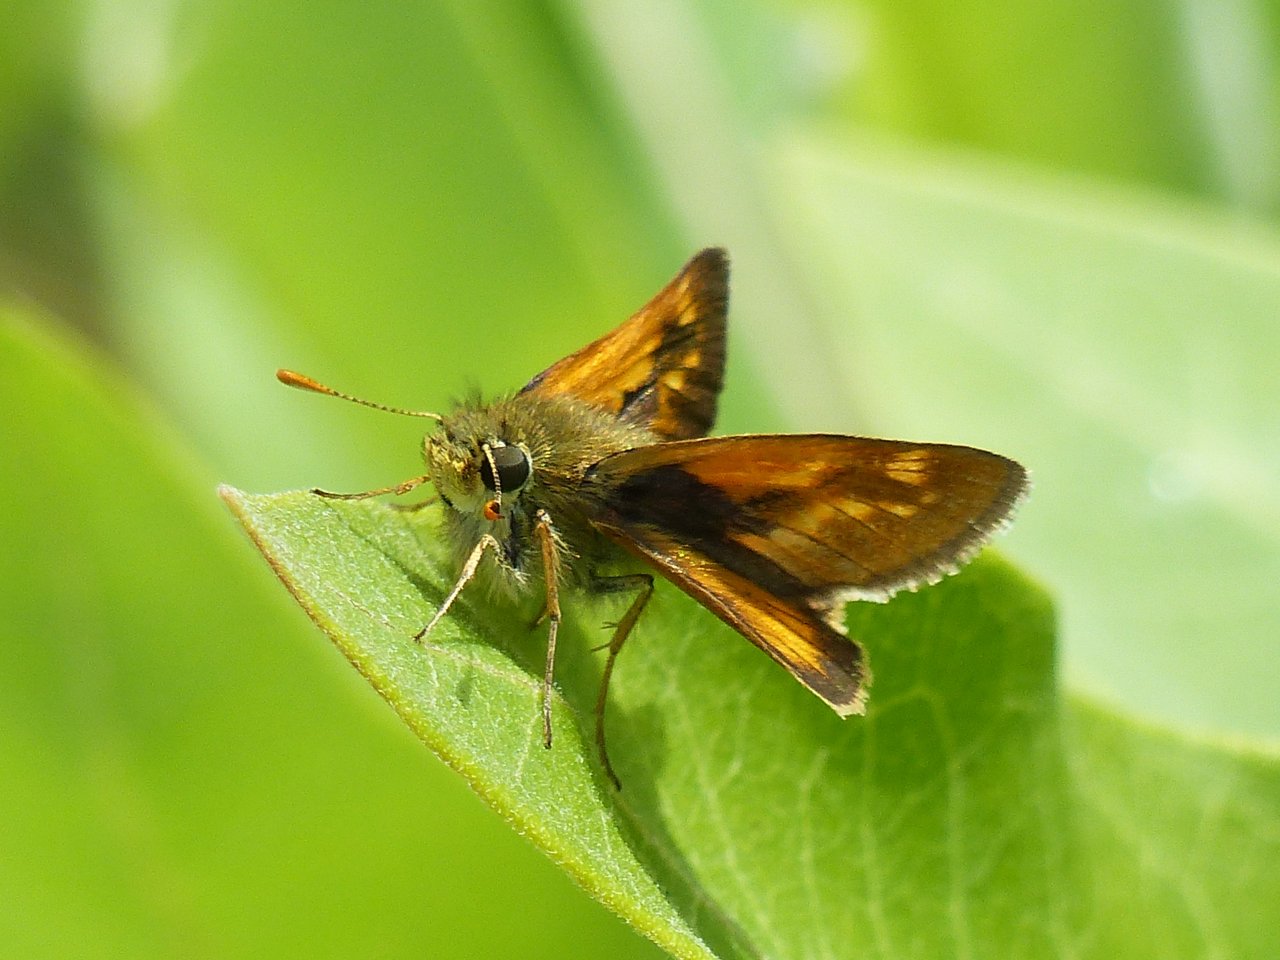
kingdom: Animalia
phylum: Arthropoda
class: Insecta
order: Lepidoptera
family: Hesperiidae
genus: Polites
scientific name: Polites
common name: Long Dash Skipper
